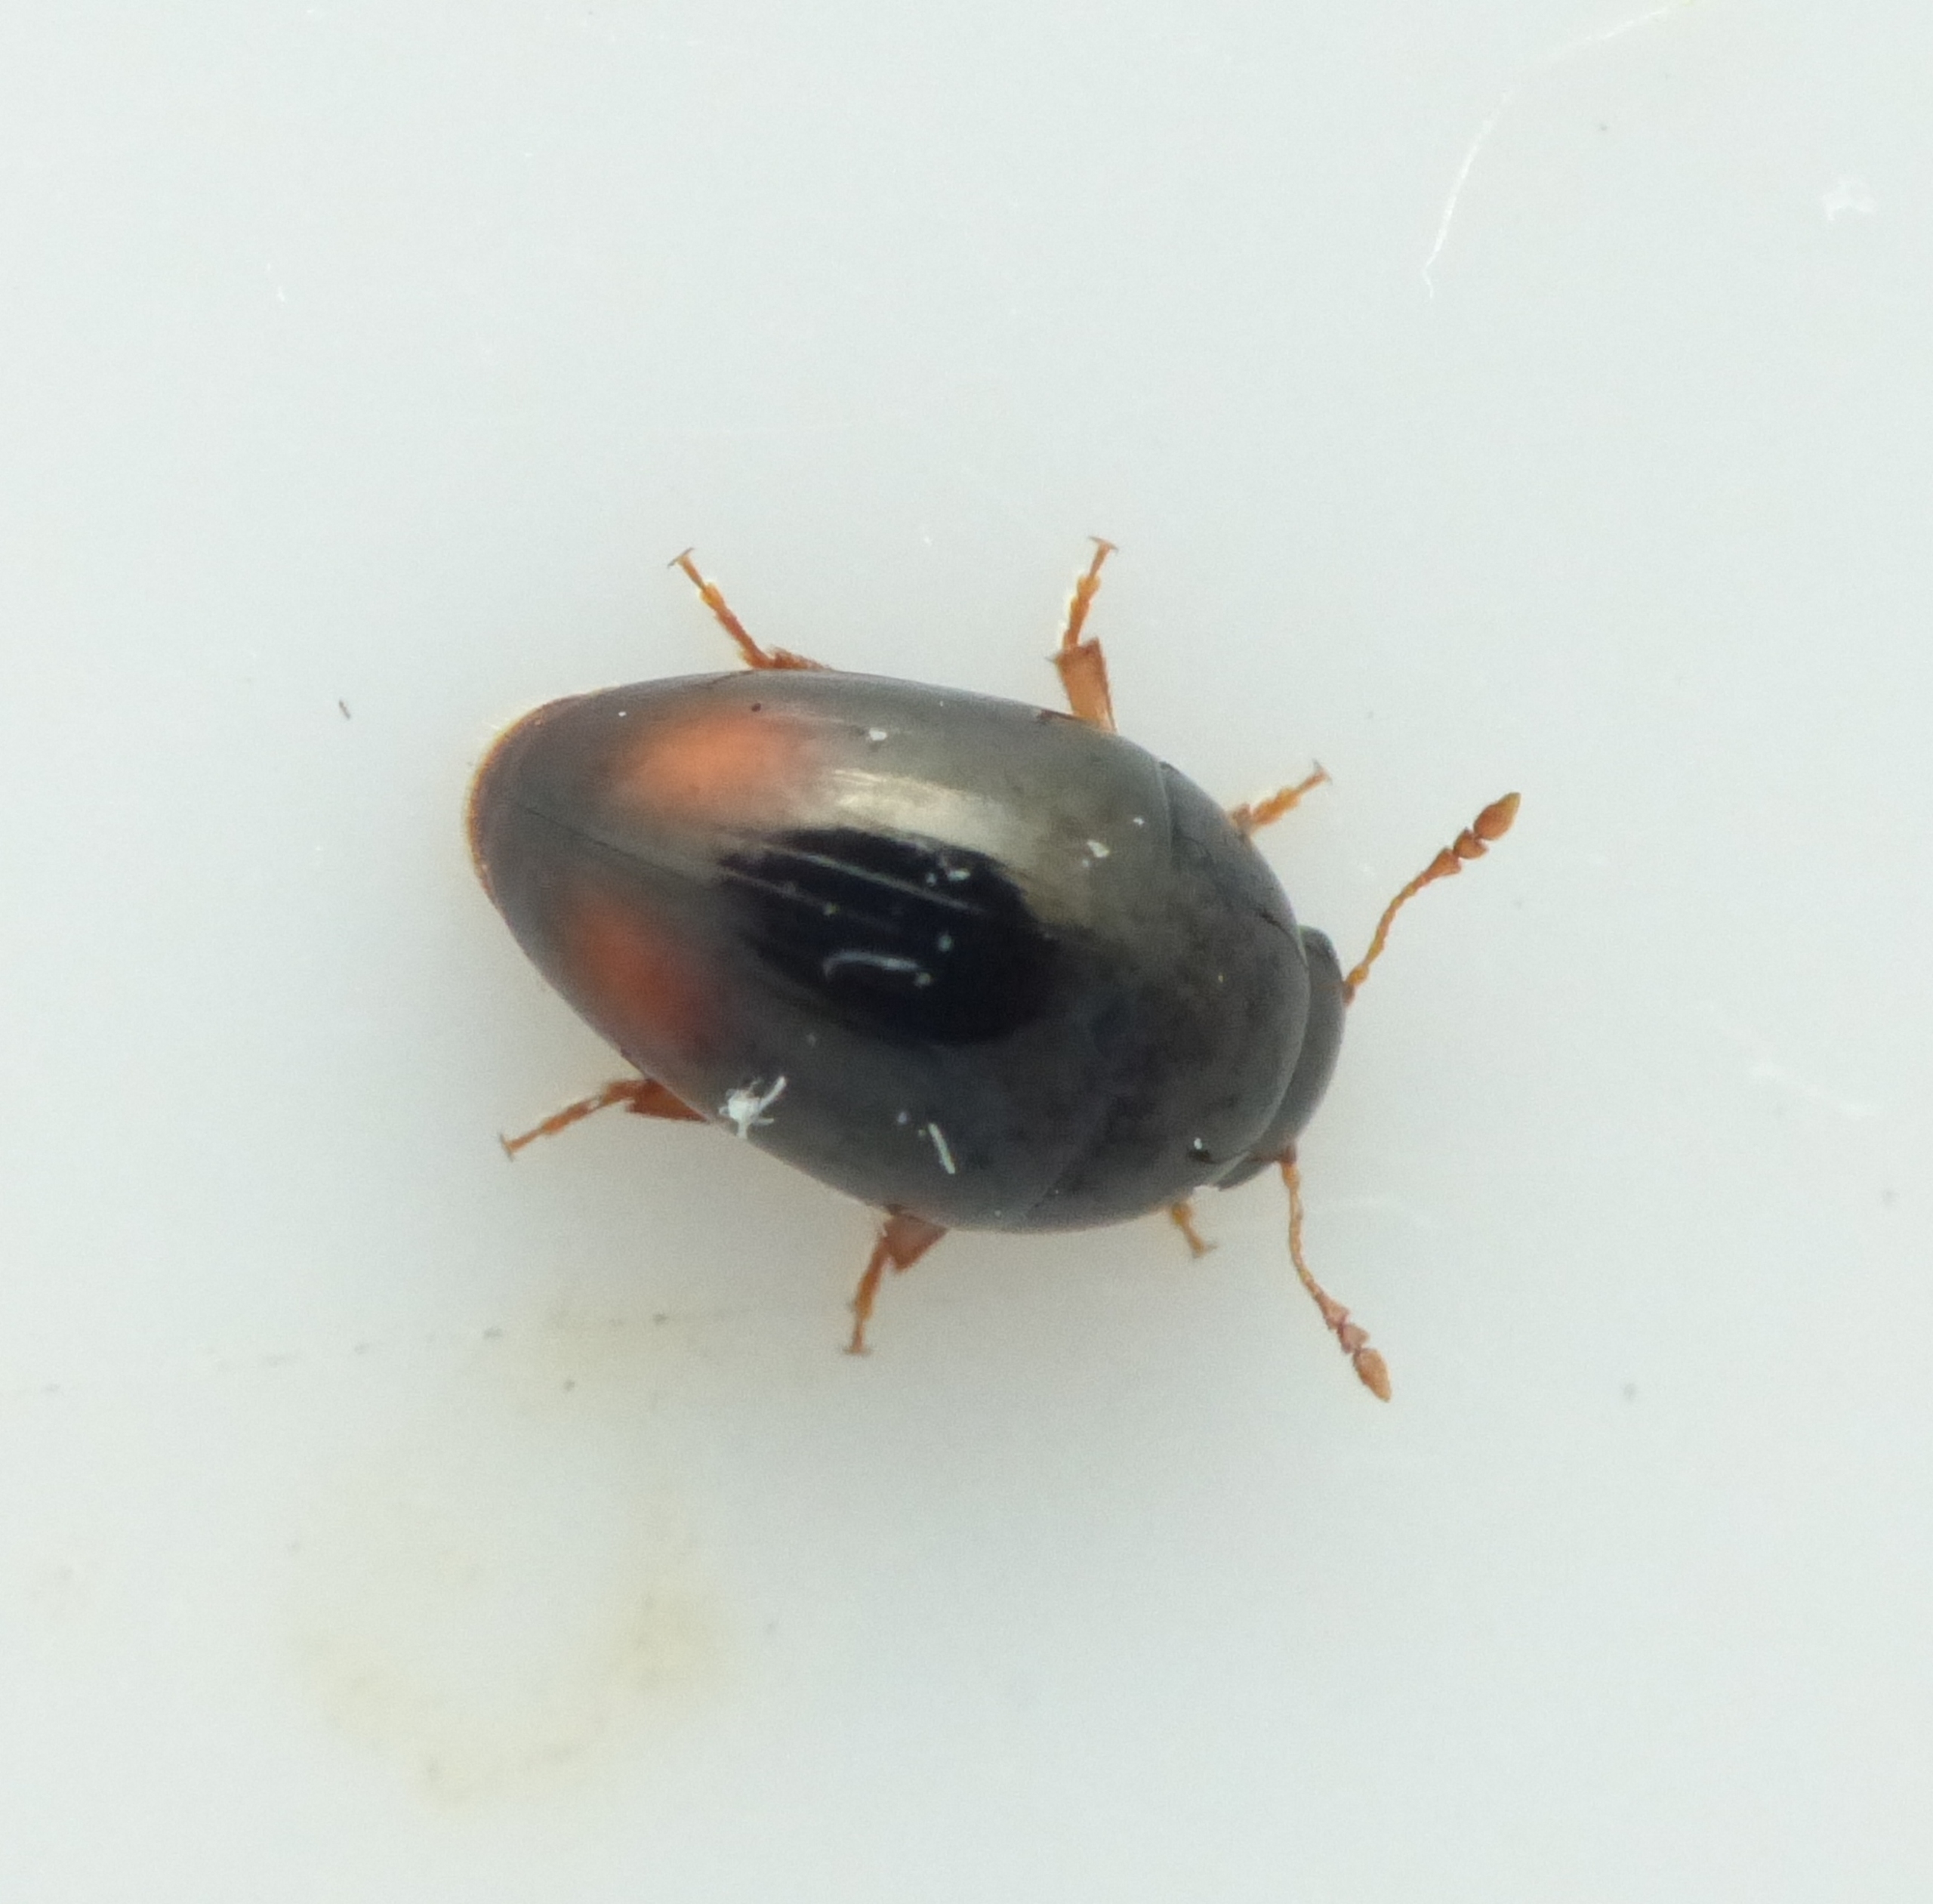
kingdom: Animalia
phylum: Arthropoda
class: Insecta
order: Coleoptera
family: Phalacridae
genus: Olibrus
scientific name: Olibrus bicolor
